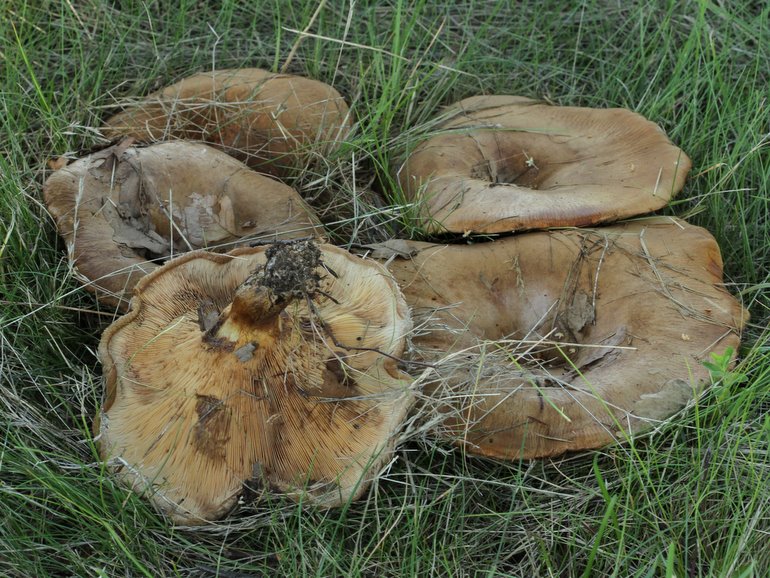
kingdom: Fungi
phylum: Basidiomycota
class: Agaricomycetes
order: Boletales
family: Paxillaceae
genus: Paxillus
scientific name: Paxillus ammoniavirescens
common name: olivensporet netbladhat
